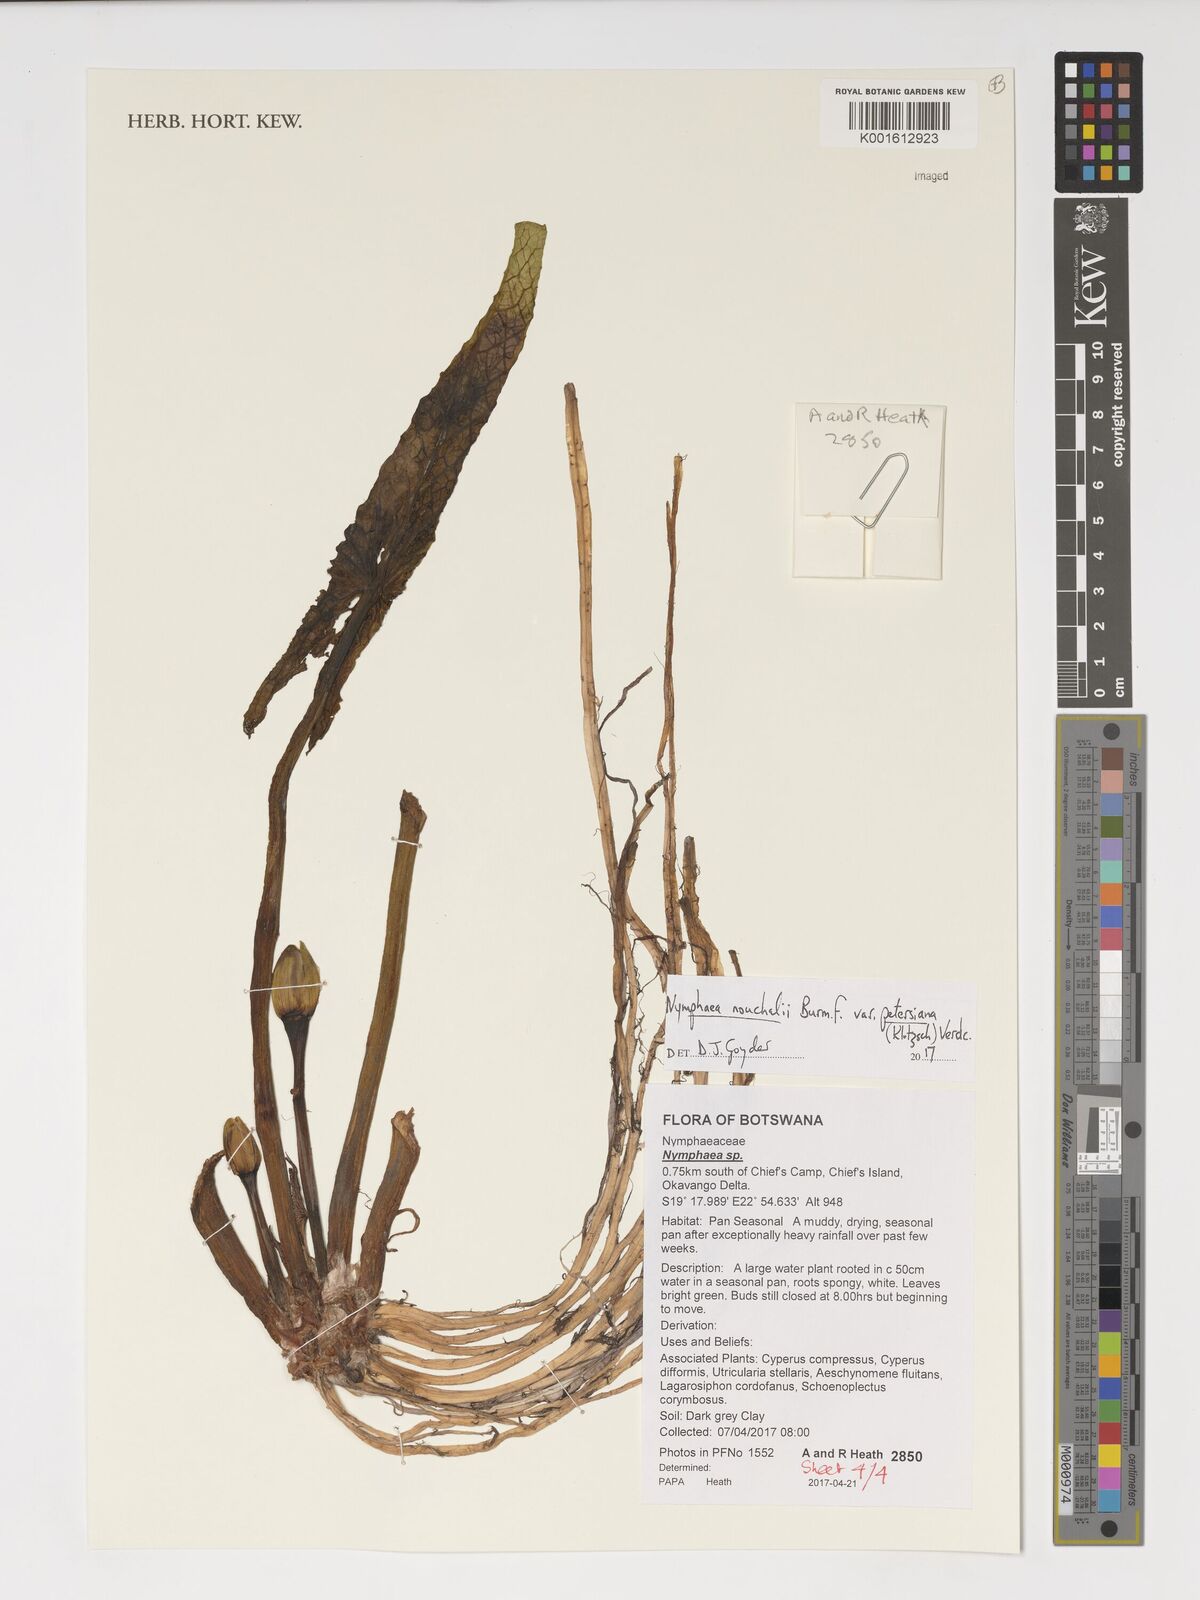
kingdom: Plantae
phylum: Tracheophyta
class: Magnoliopsida
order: Nymphaeales
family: Nymphaeaceae
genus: Nymphaea
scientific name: Nymphaea nouchali
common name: Blue lotus
